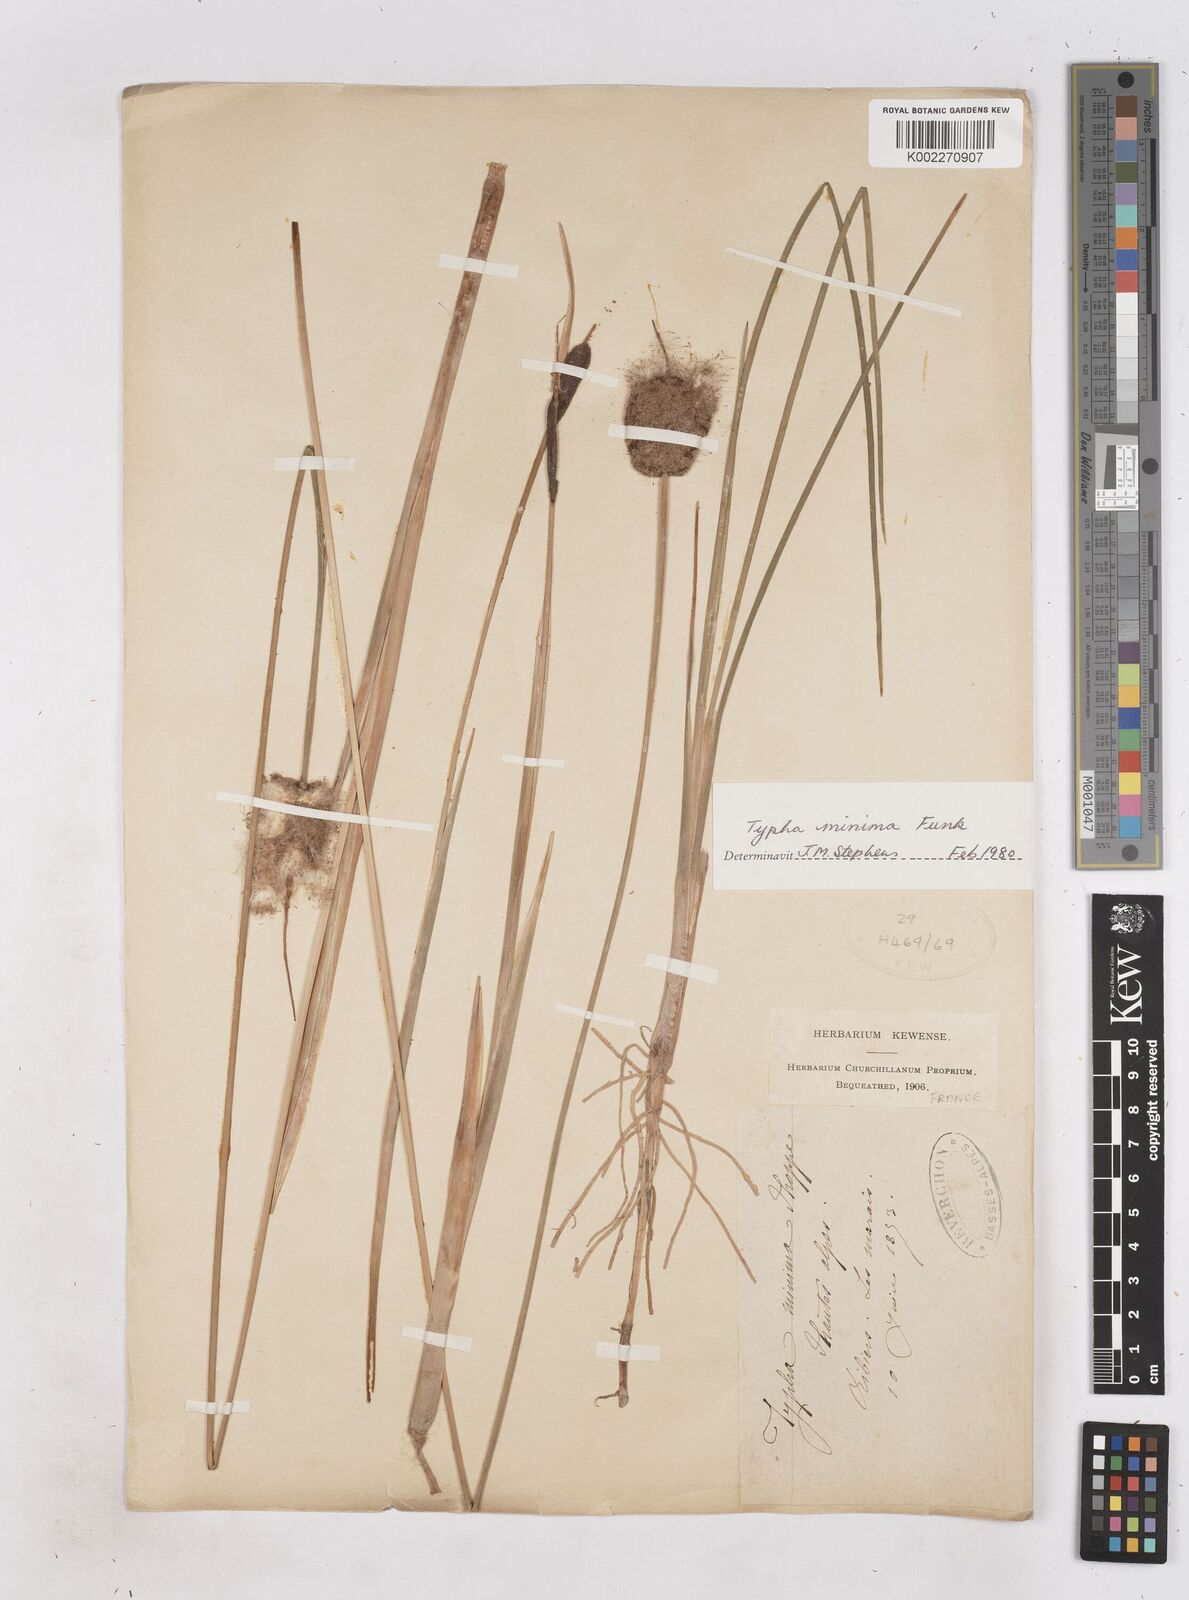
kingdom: Plantae
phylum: Tracheophyta
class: Liliopsida
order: Poales
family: Typhaceae
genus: Typha
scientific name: Typha
